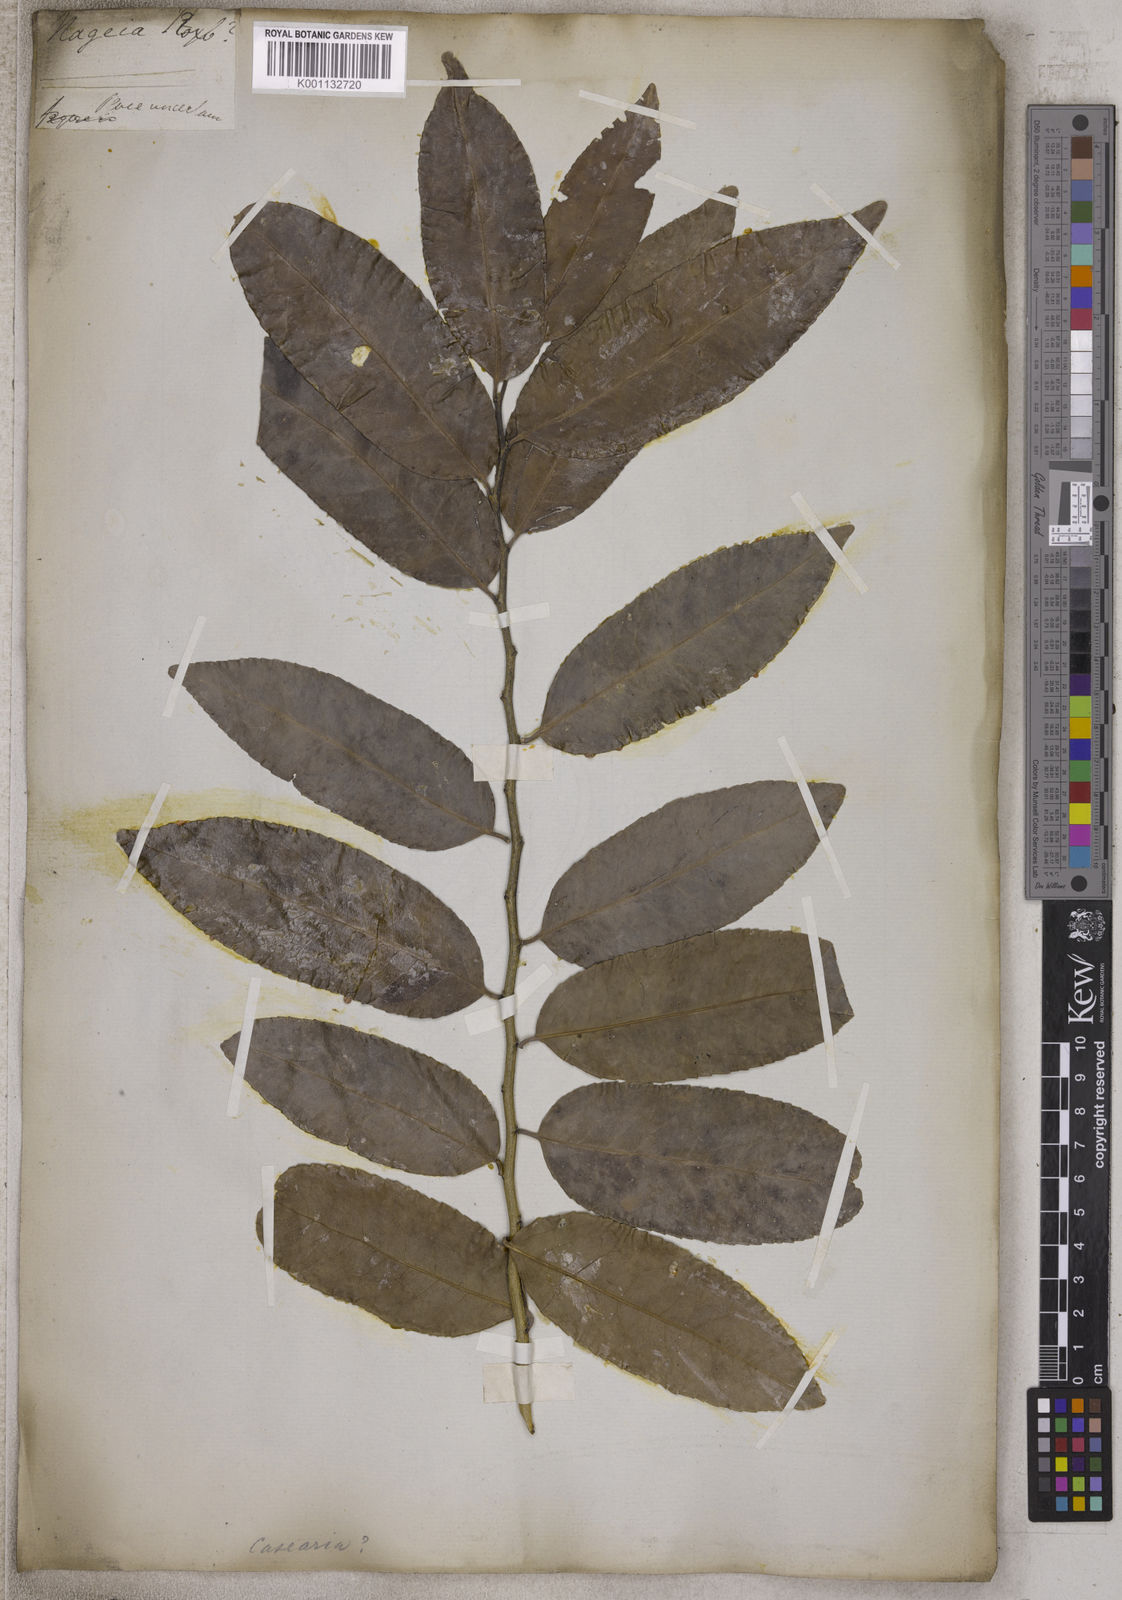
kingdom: Plantae
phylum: Tracheophyta
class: Pinopsida
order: Pinales
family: Podocarpaceae
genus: Nageia
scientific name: Nageia
